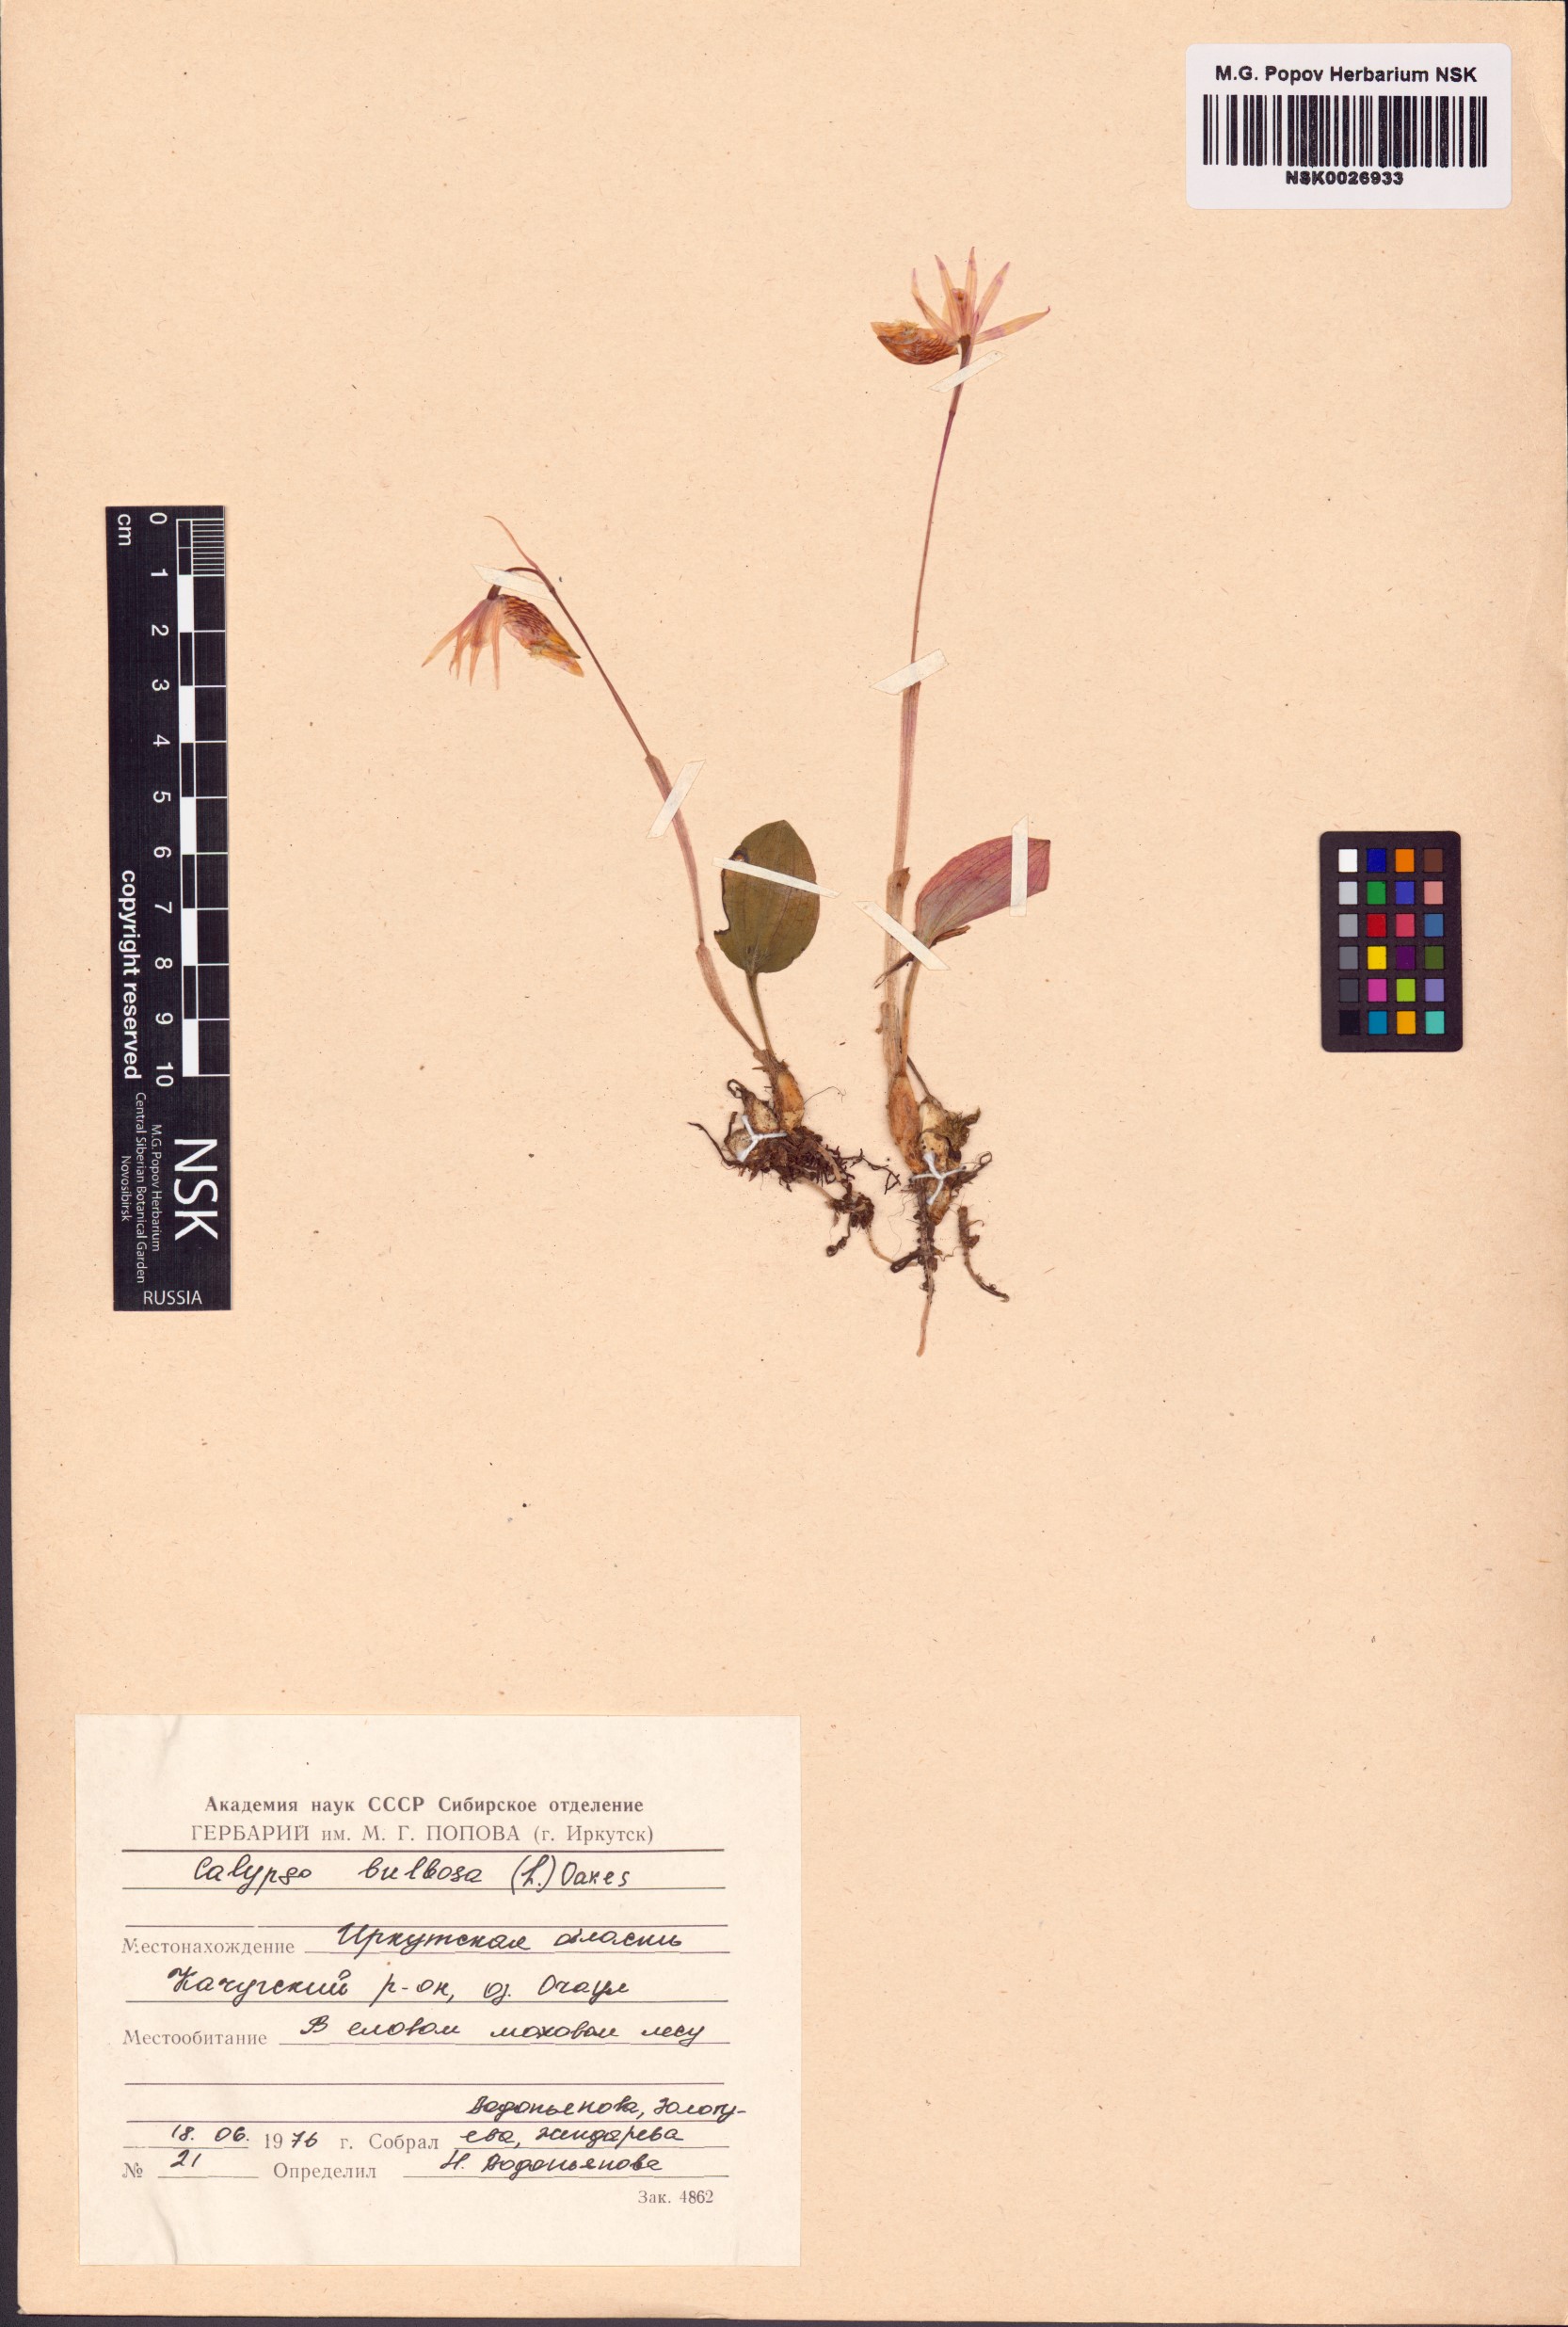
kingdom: Plantae
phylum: Tracheophyta
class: Liliopsida
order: Asparagales
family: Orchidaceae
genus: Calypso
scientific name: Calypso bulbosa
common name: Calypso
